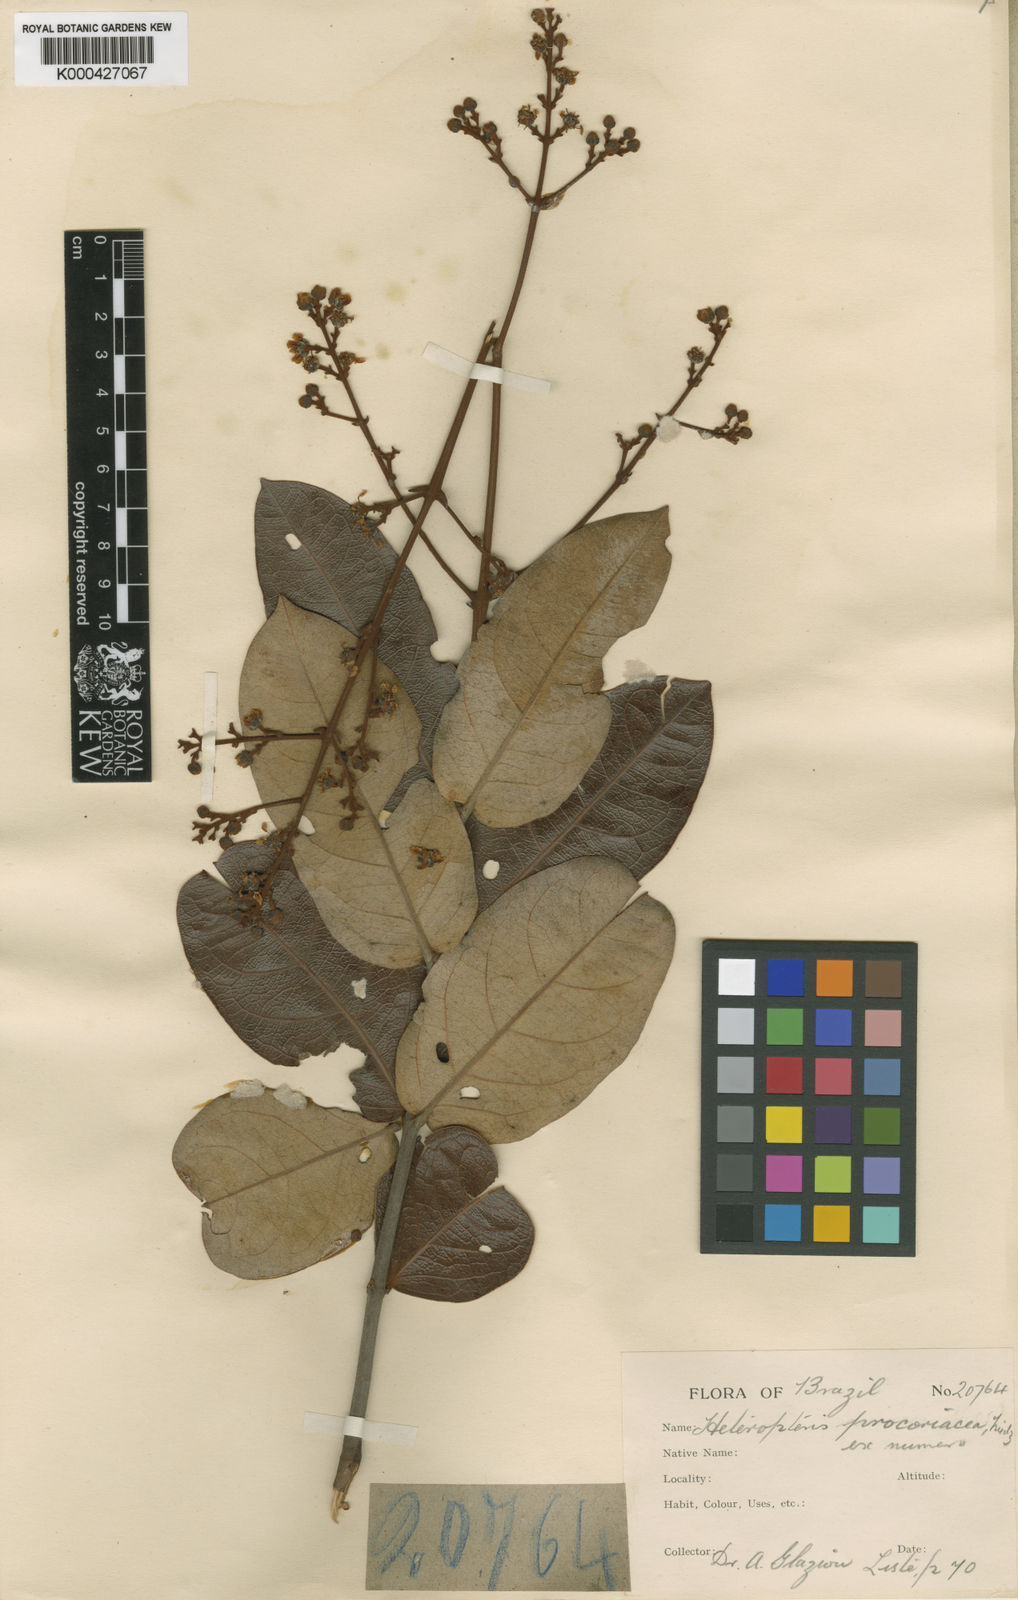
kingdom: Plantae
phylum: Tracheophyta
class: Magnoliopsida
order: Malpighiales
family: Malpighiaceae
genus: Heteropterys
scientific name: Heteropterys procoriacea
